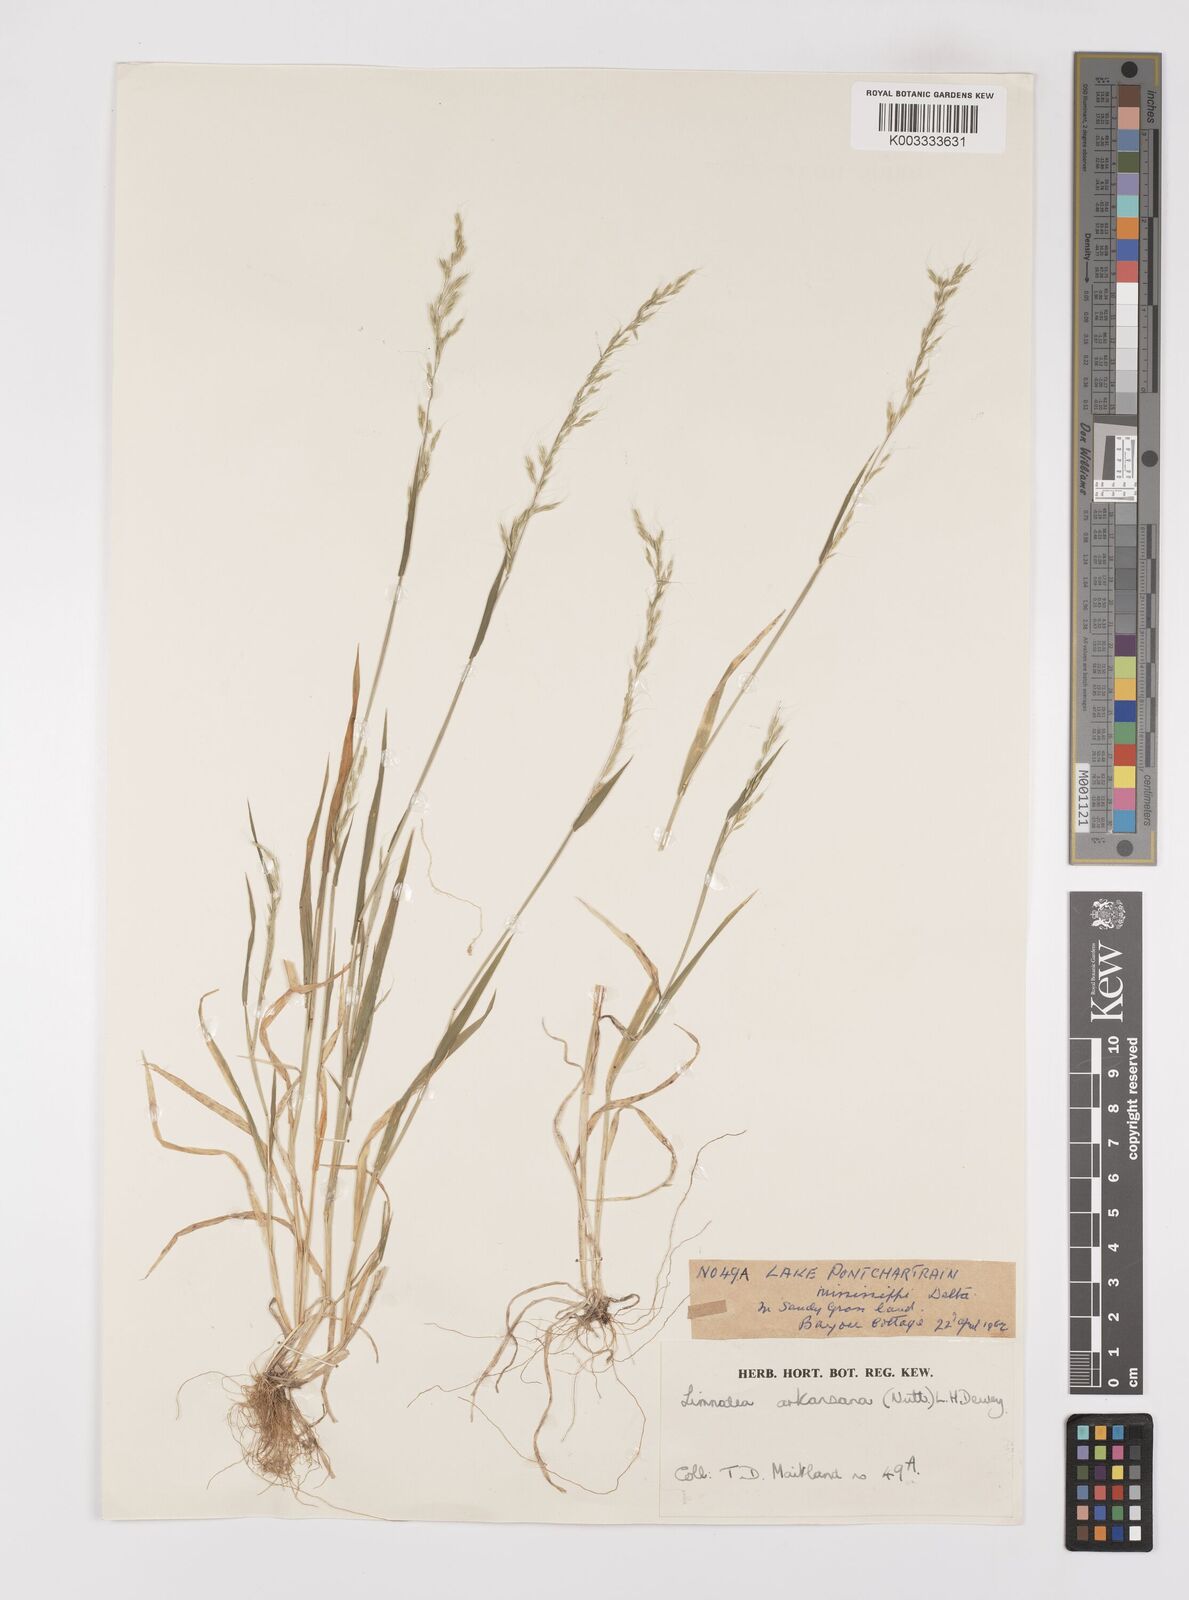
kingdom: Plantae
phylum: Tracheophyta
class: Liliopsida
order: Poales
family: Poaceae
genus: Limnodea
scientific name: Limnodea arkansana
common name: Ozark-grass
